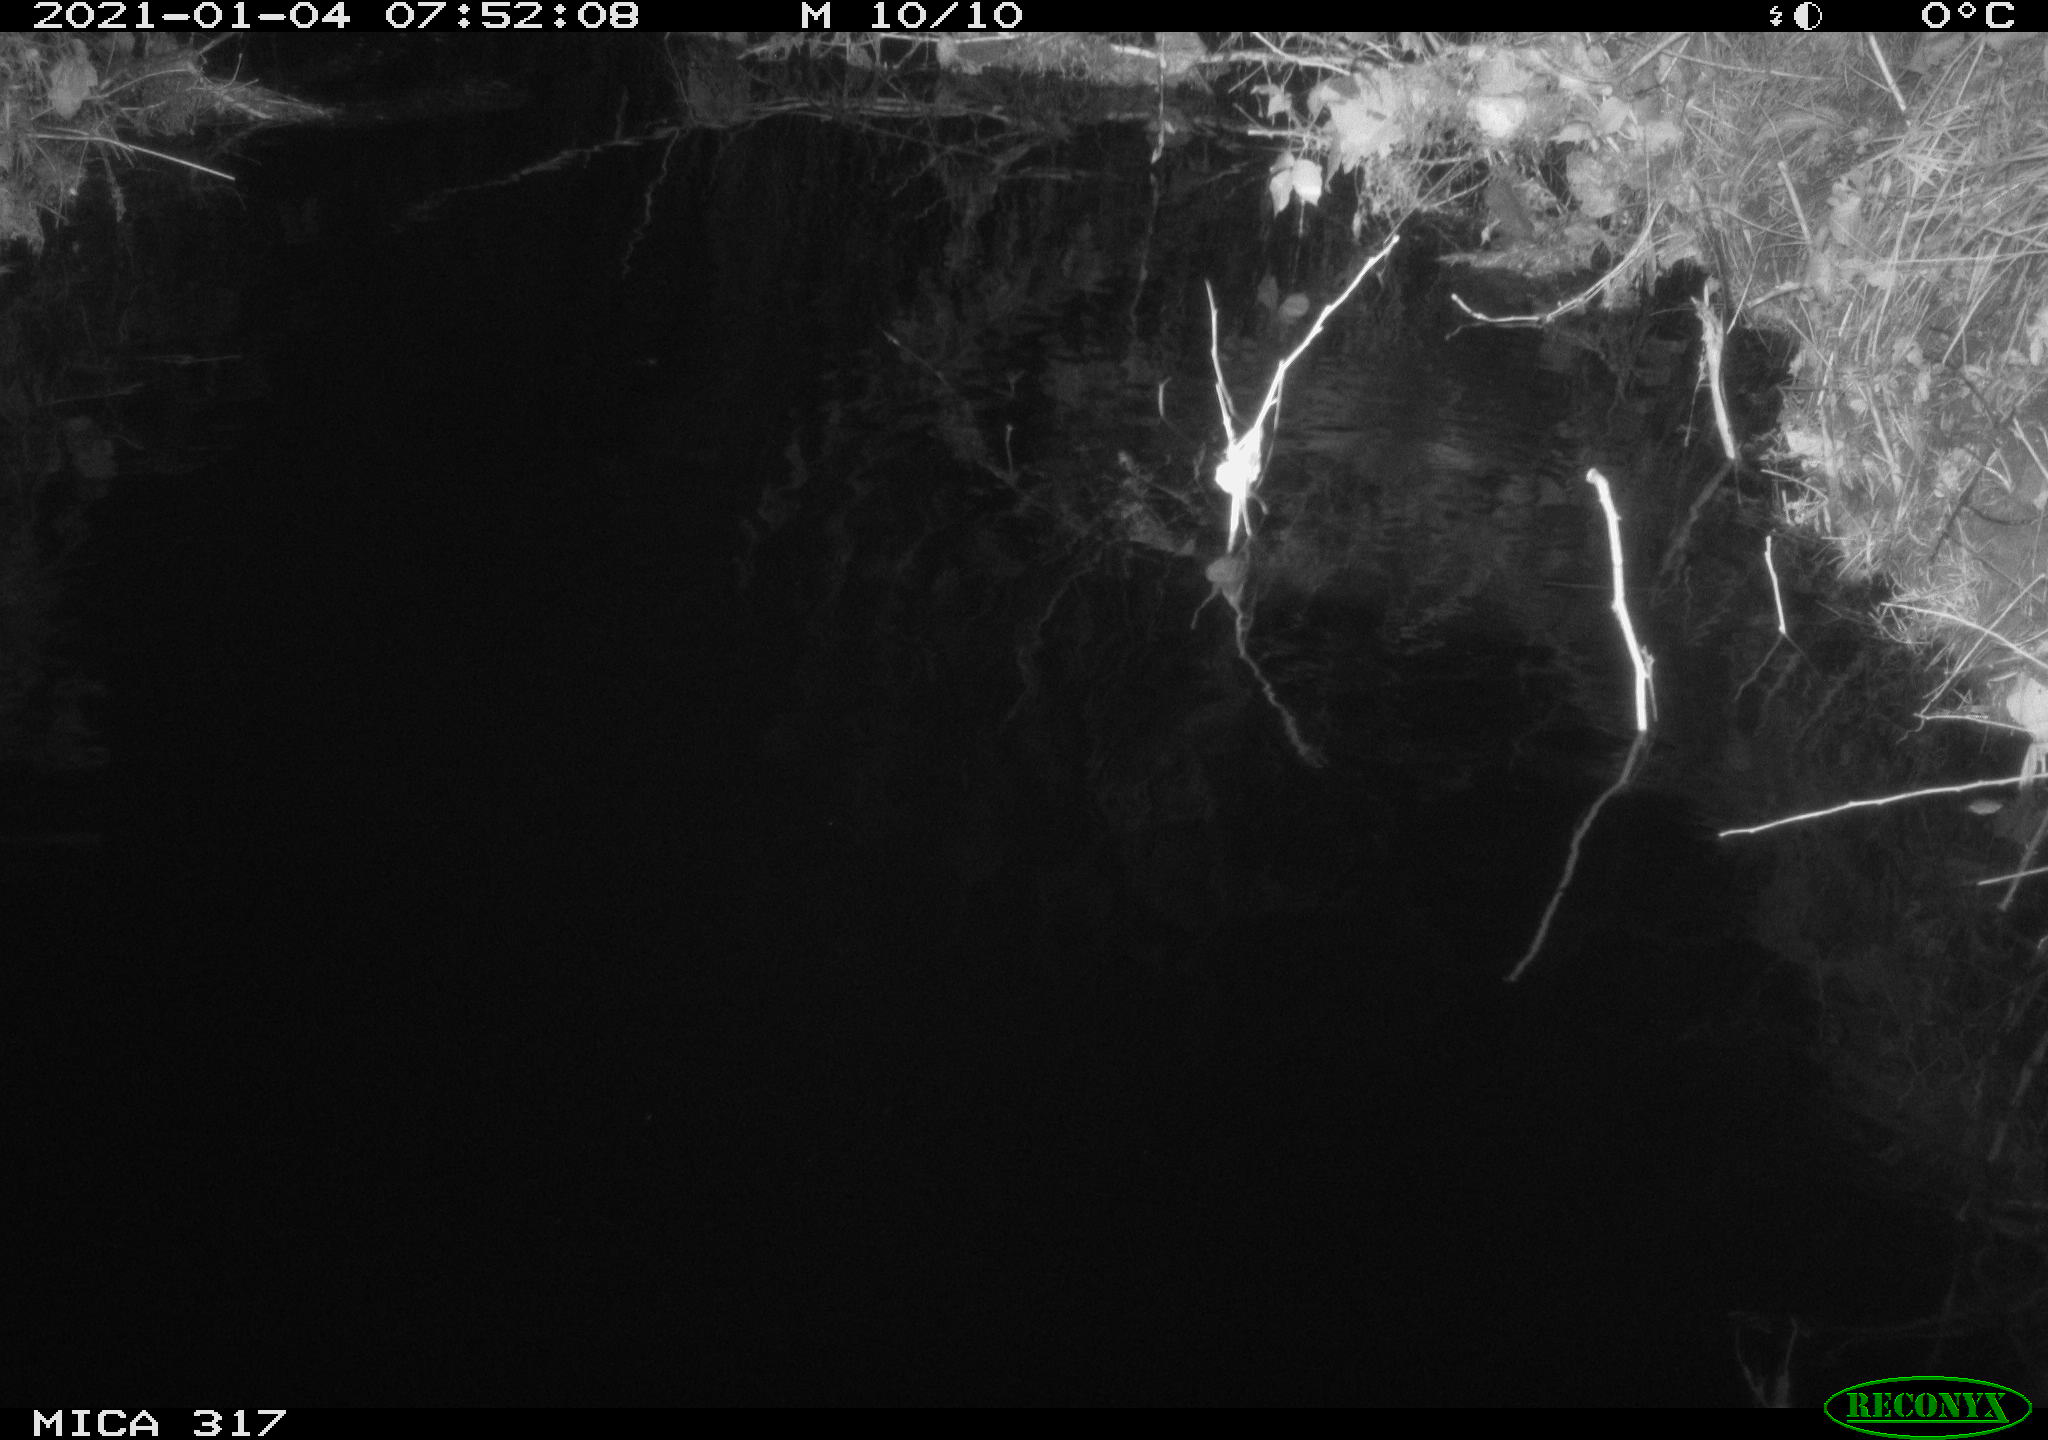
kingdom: Animalia
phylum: Chordata
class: Aves
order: Gruiformes
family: Rallidae
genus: Gallinula
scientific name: Gallinula chloropus
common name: Common moorhen
